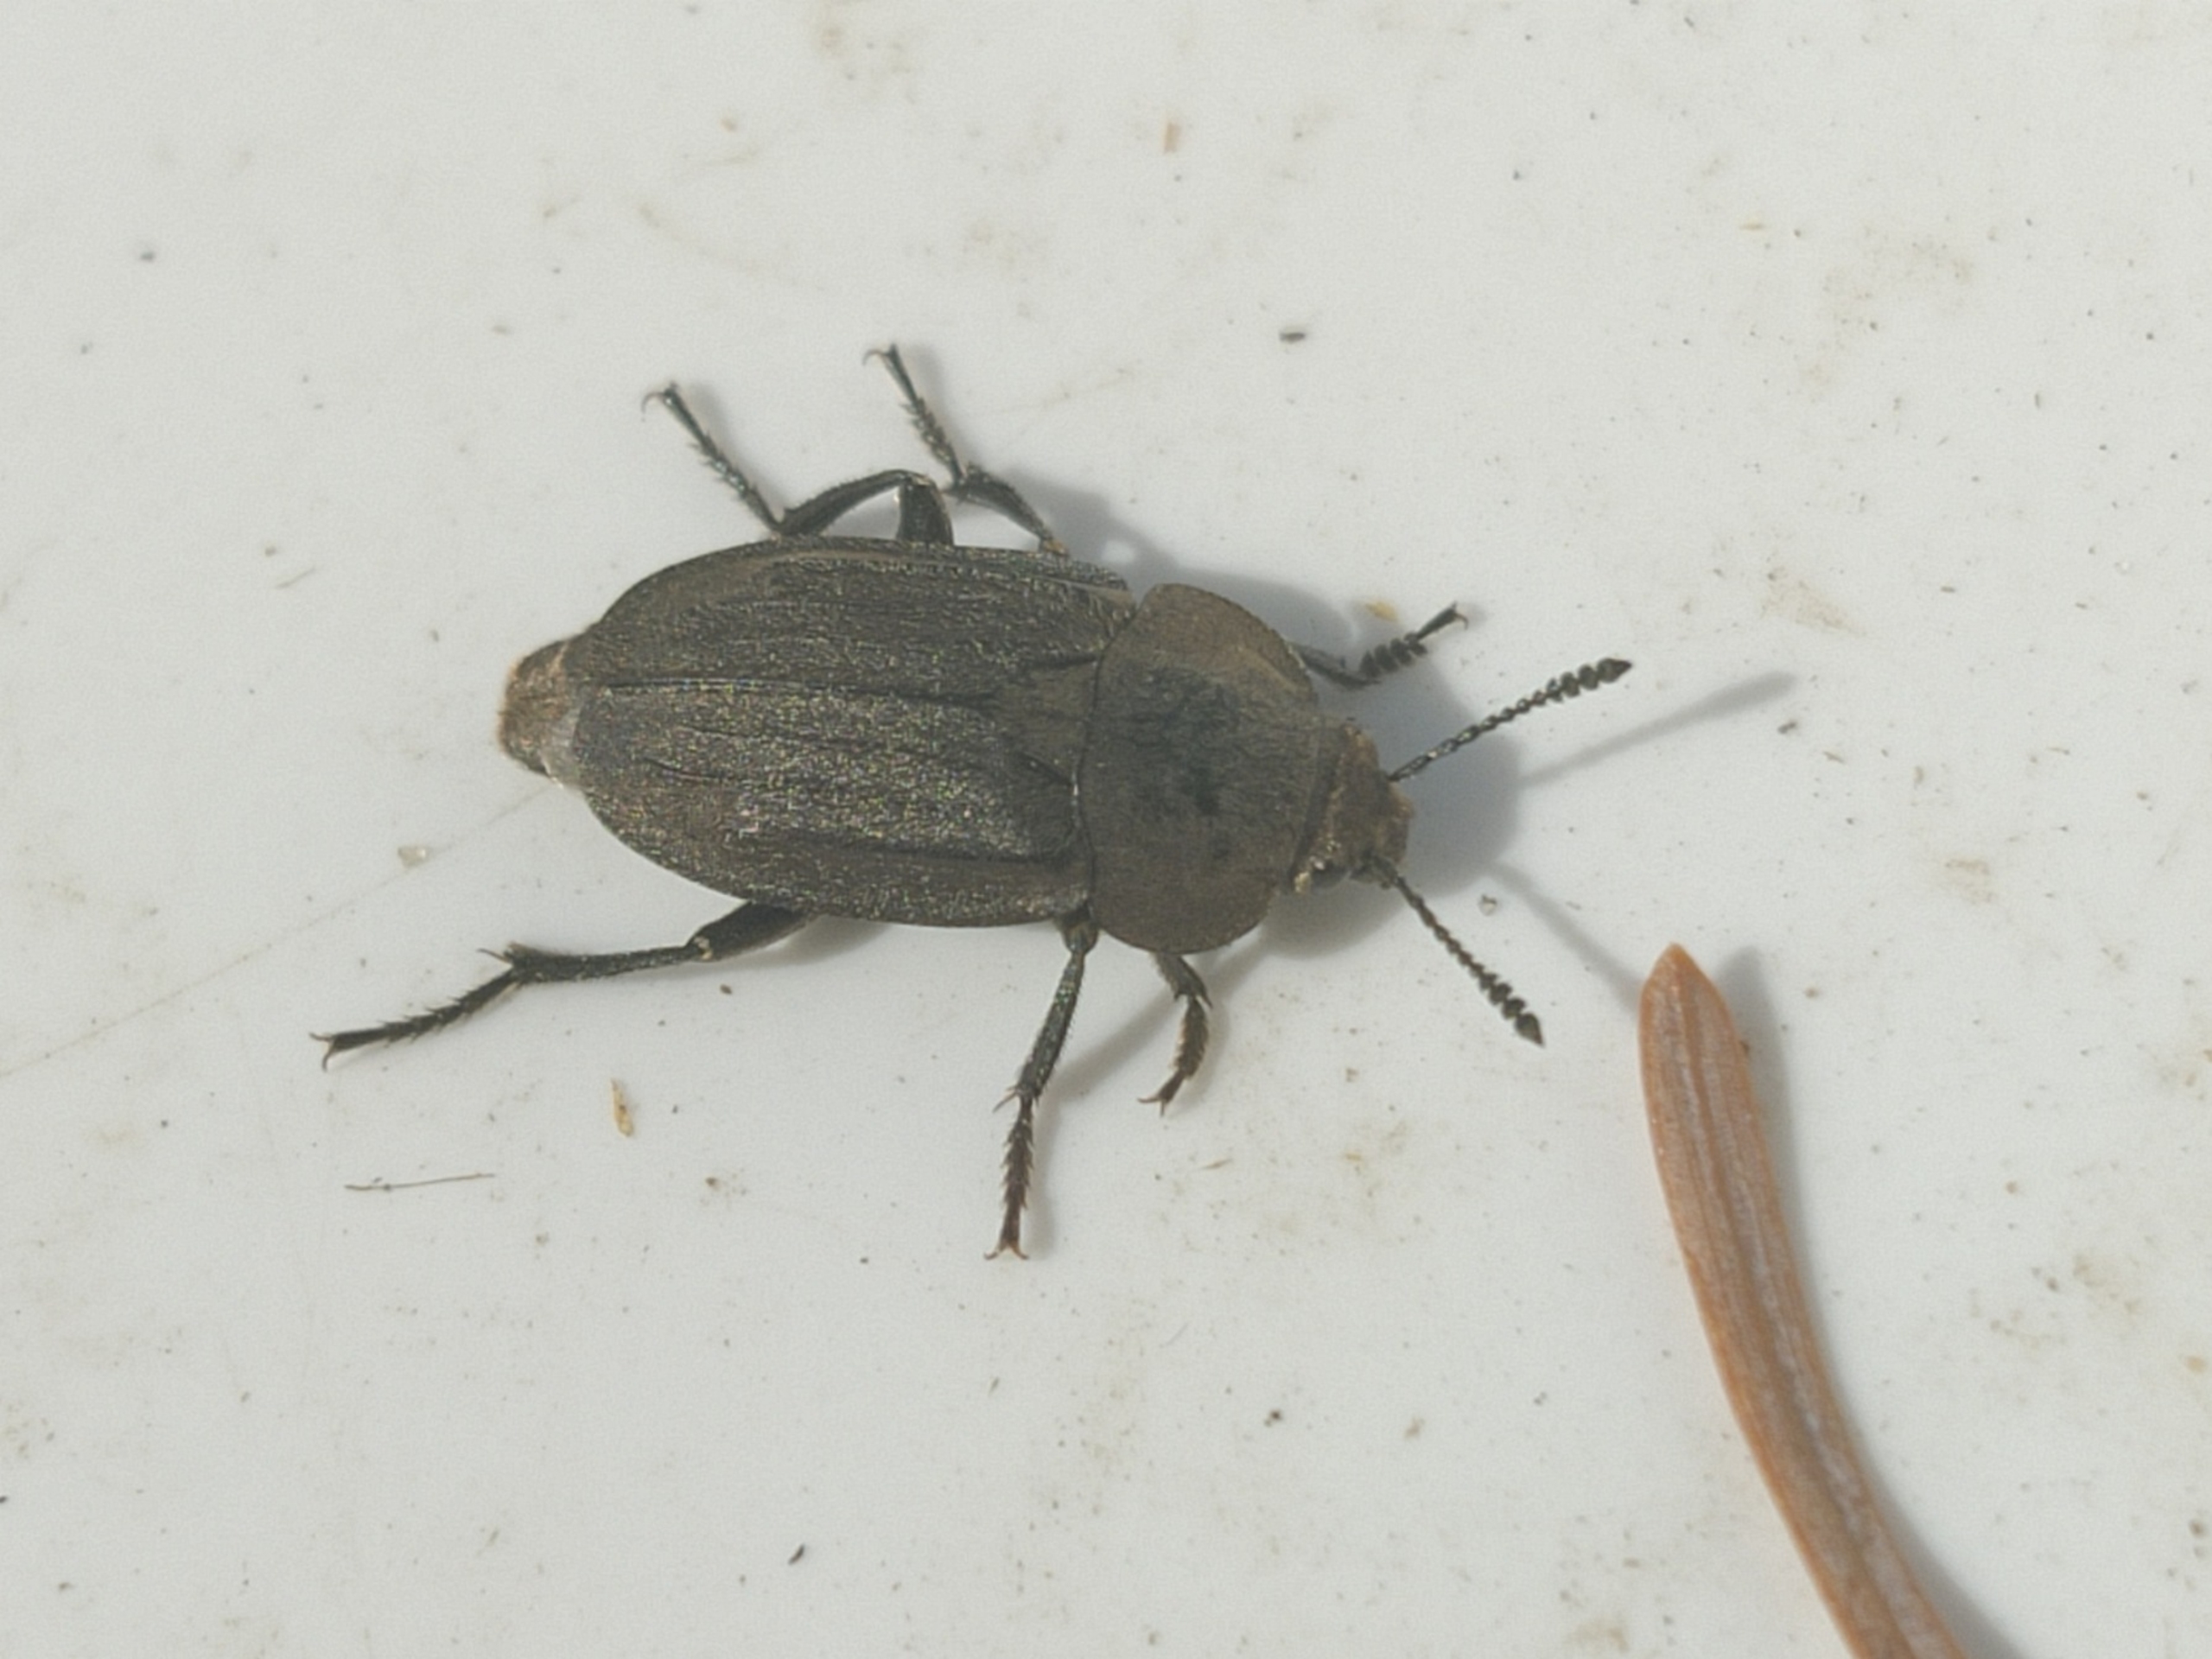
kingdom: Animalia
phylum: Arthropoda
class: Insecta
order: Coleoptera
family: Staphylinidae
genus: Aclypea
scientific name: Aclypea opaca
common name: Matsort ådselbille
